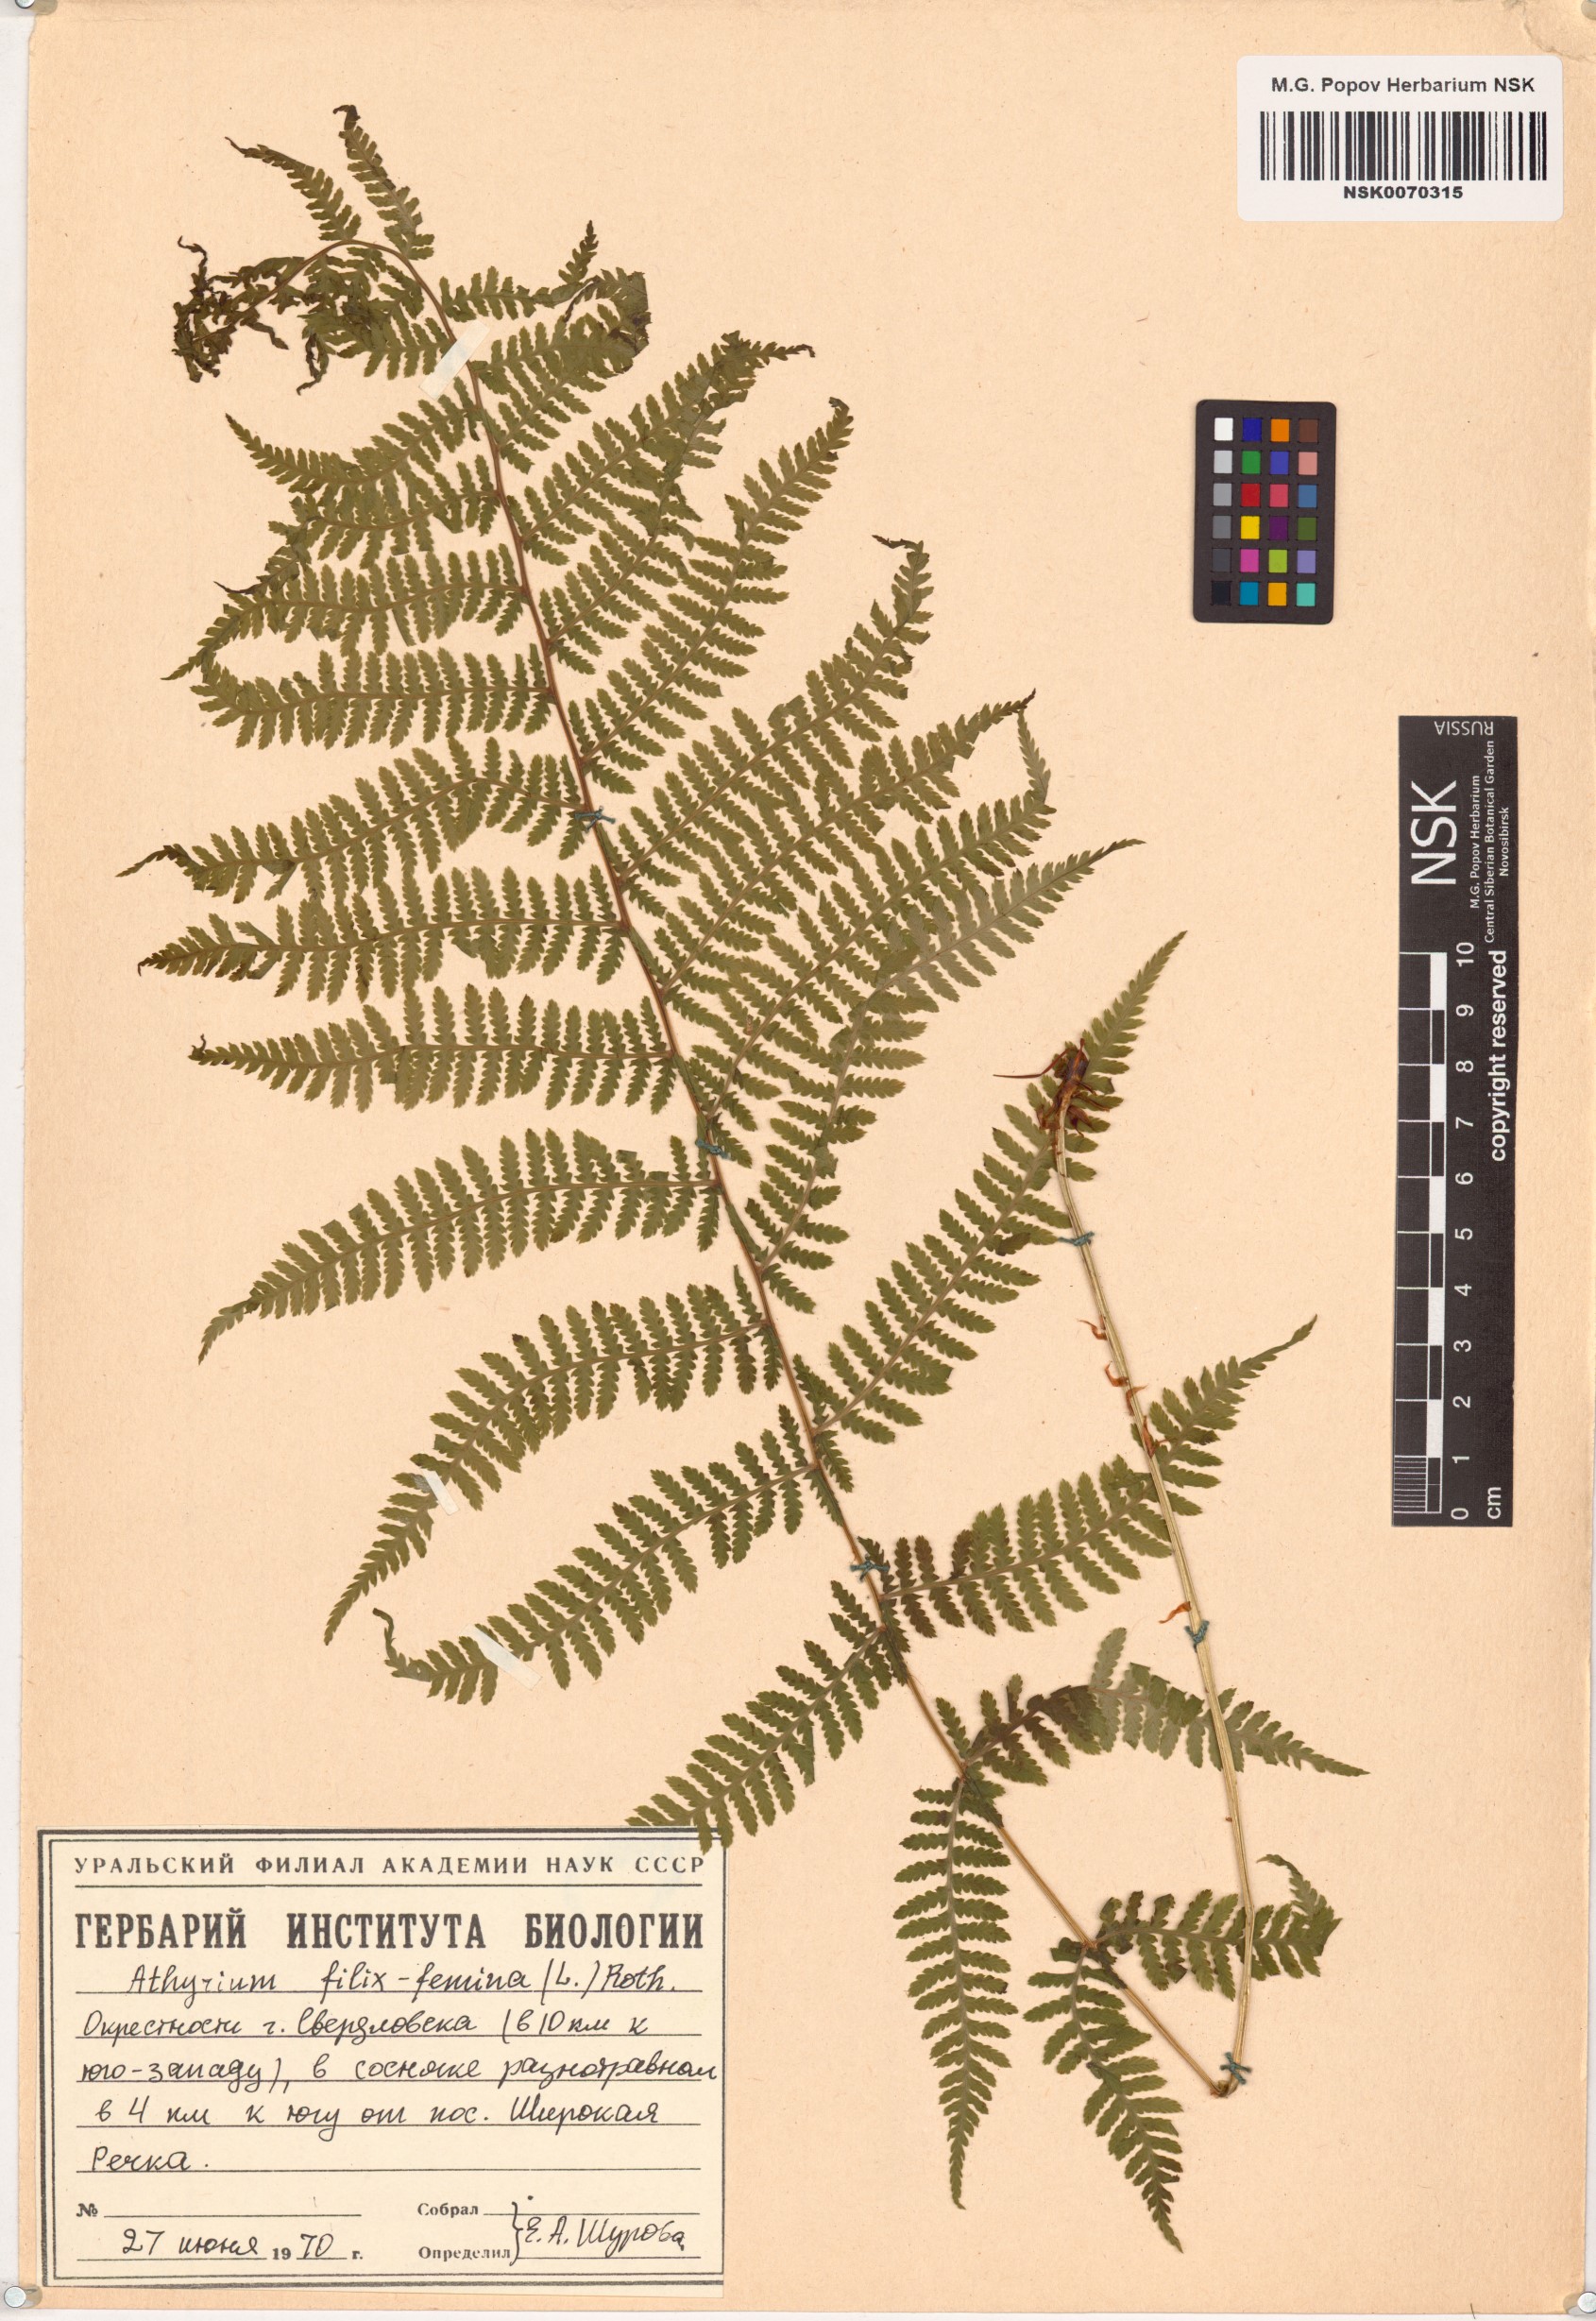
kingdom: Plantae
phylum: Tracheophyta
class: Polypodiopsida
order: Polypodiales
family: Athyriaceae
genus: Athyrium
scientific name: Athyrium filix-femina
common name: Lady fern
